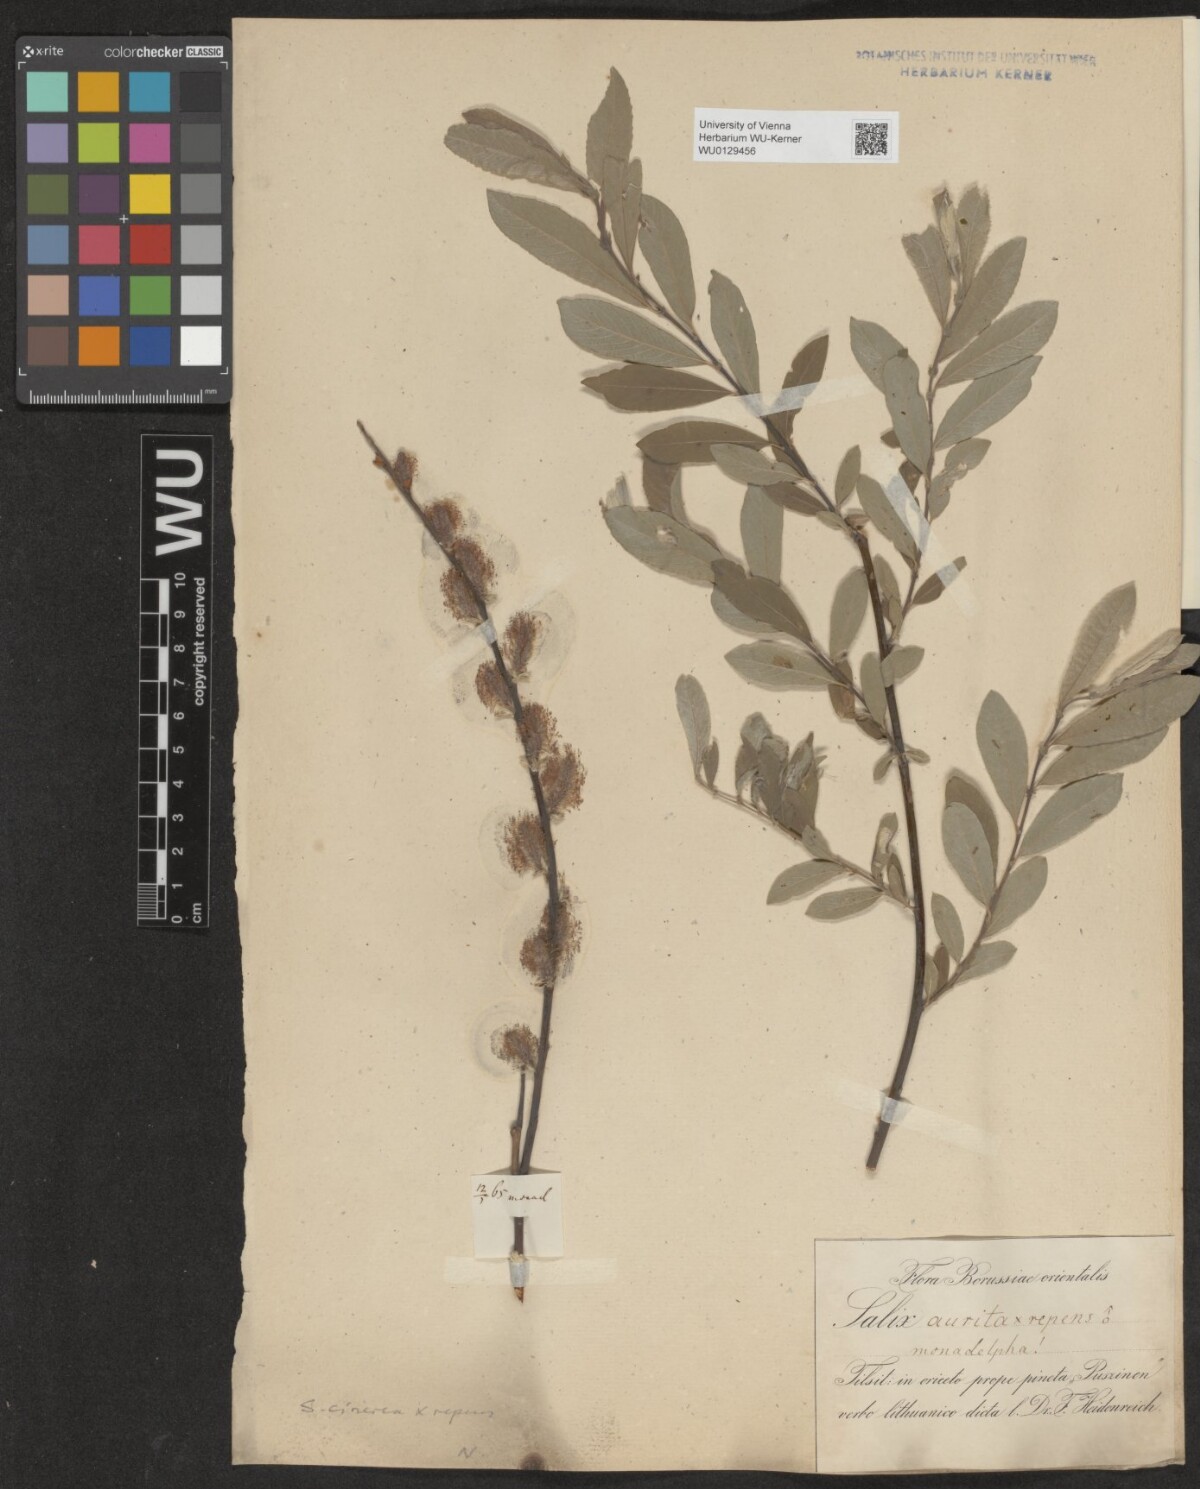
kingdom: Plantae
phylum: Tracheophyta
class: Magnoliopsida
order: Malpighiales
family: Salicaceae
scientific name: Salicaceae
